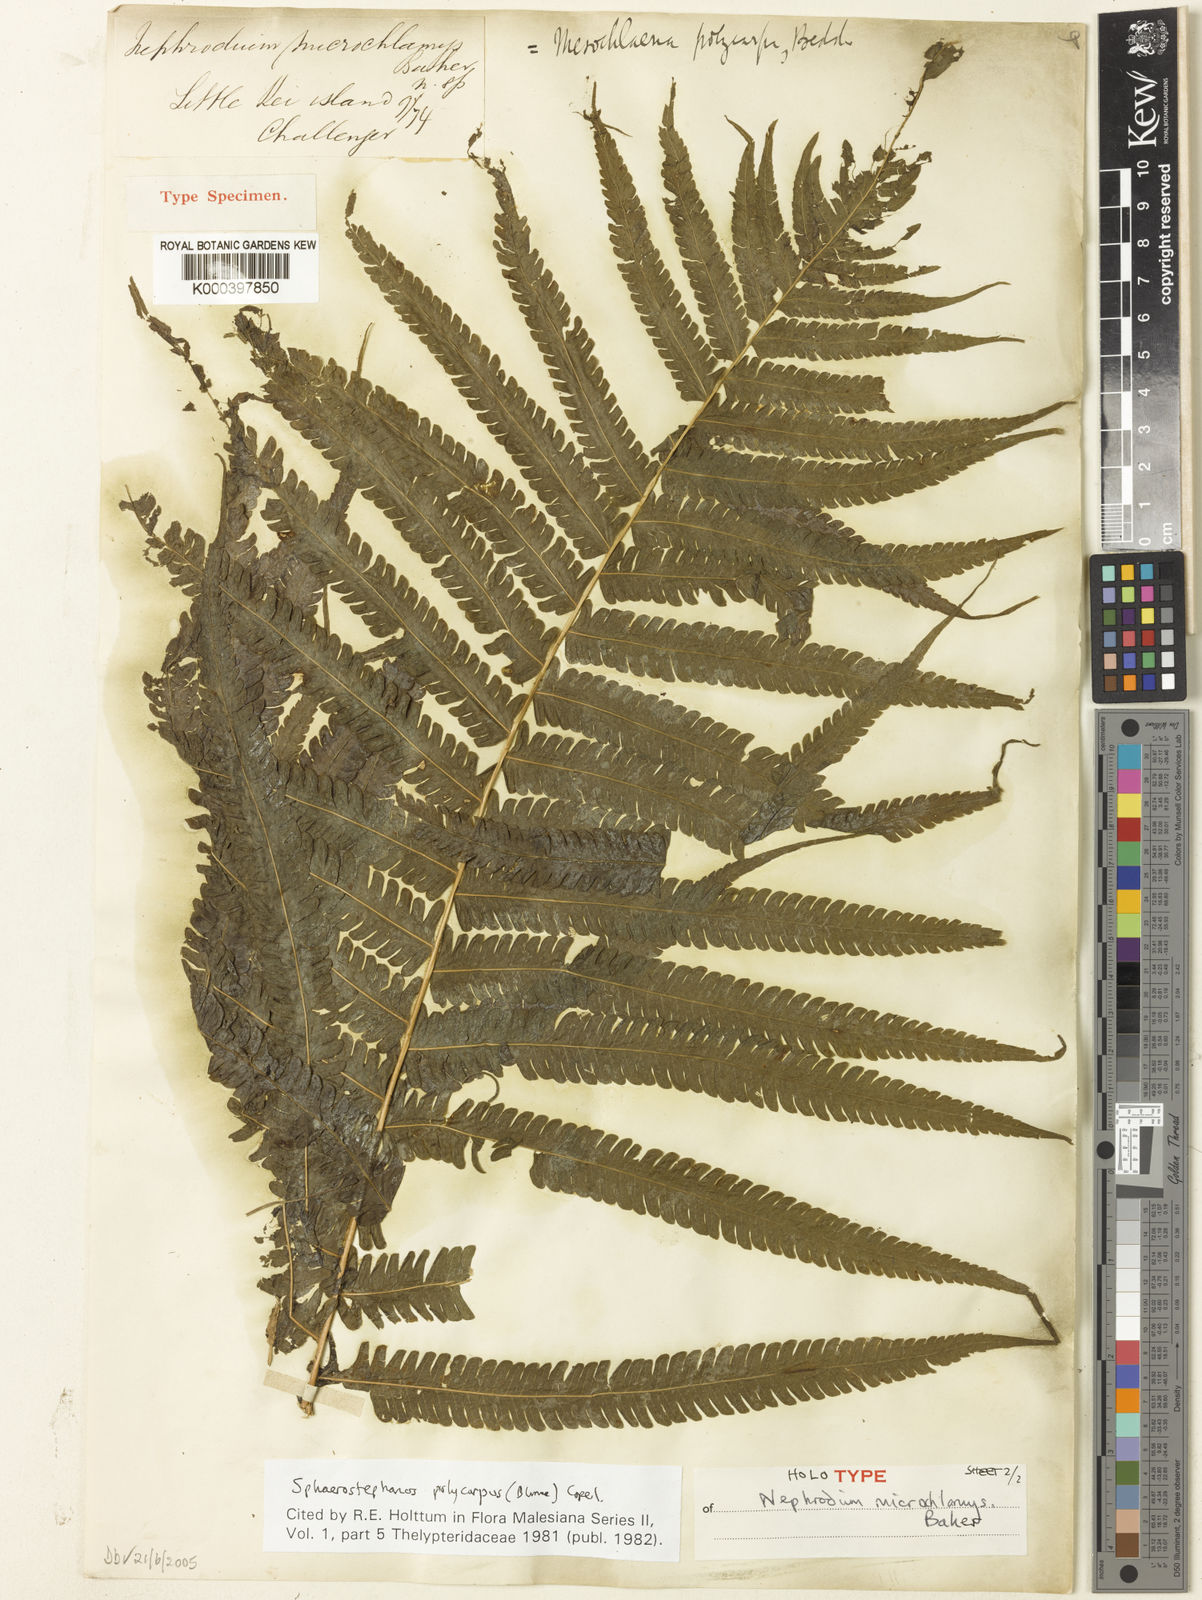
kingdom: Plantae
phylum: Tracheophyta
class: Polypodiopsida
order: Polypodiales
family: Thelypteridaceae
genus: Sphaerostephanos
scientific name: Sphaerostephanos polycarpos
